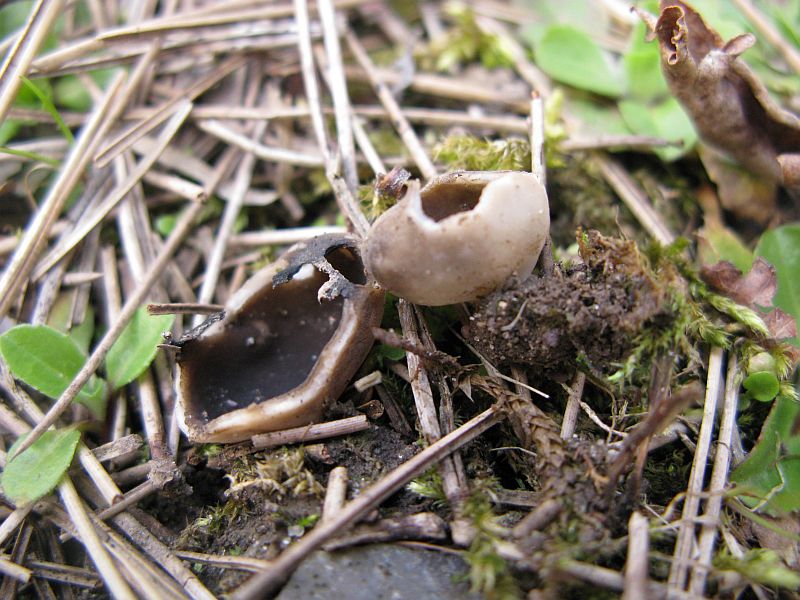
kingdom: Fungi
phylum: Ascomycota
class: Pezizomycetes
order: Pezizales
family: Helvellaceae
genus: Dissingia
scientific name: Dissingia leucomelaena
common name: sorthvid foldhat
